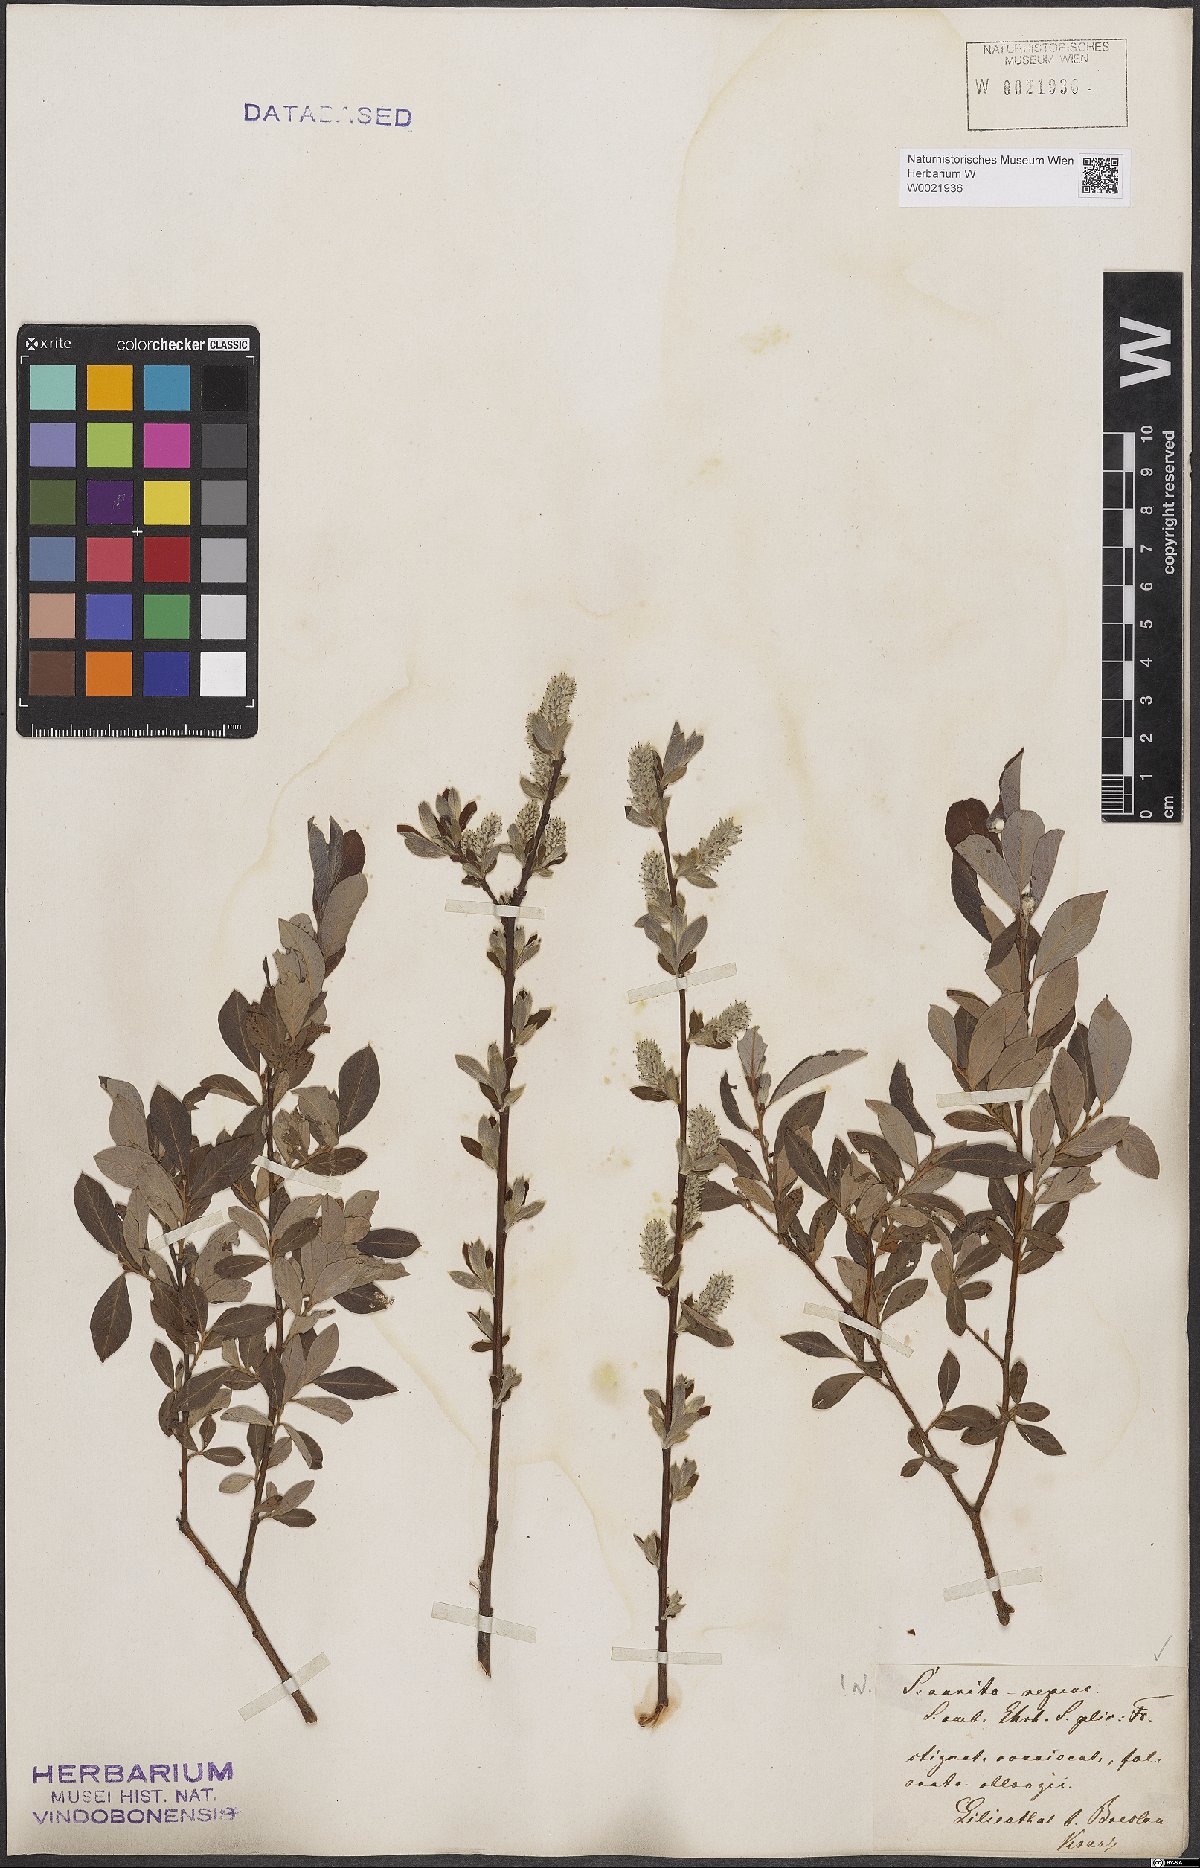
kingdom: Plantae
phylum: Tracheophyta
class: Magnoliopsida
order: Malpighiales
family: Salicaceae
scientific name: Salicaceae
